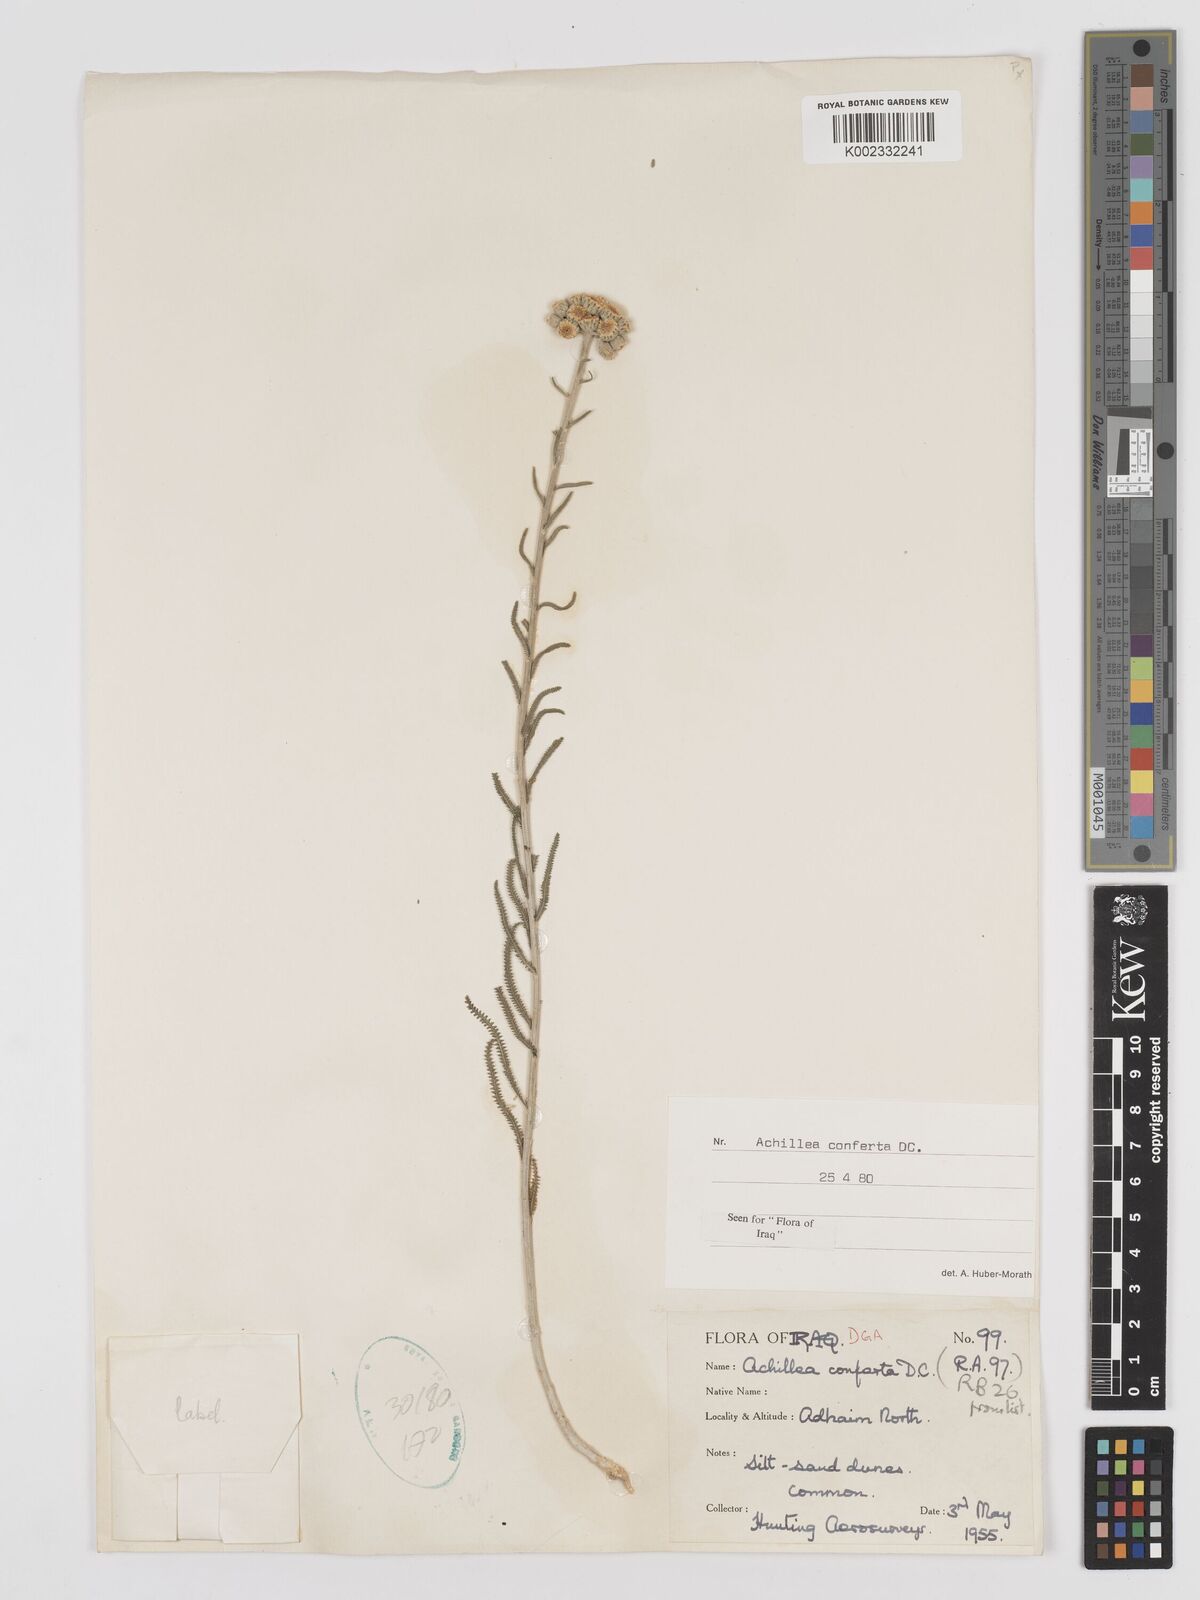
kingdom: Plantae
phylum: Tracheophyta
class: Magnoliopsida
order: Asterales
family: Asteraceae
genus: Achillea
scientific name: Achillea conferta
